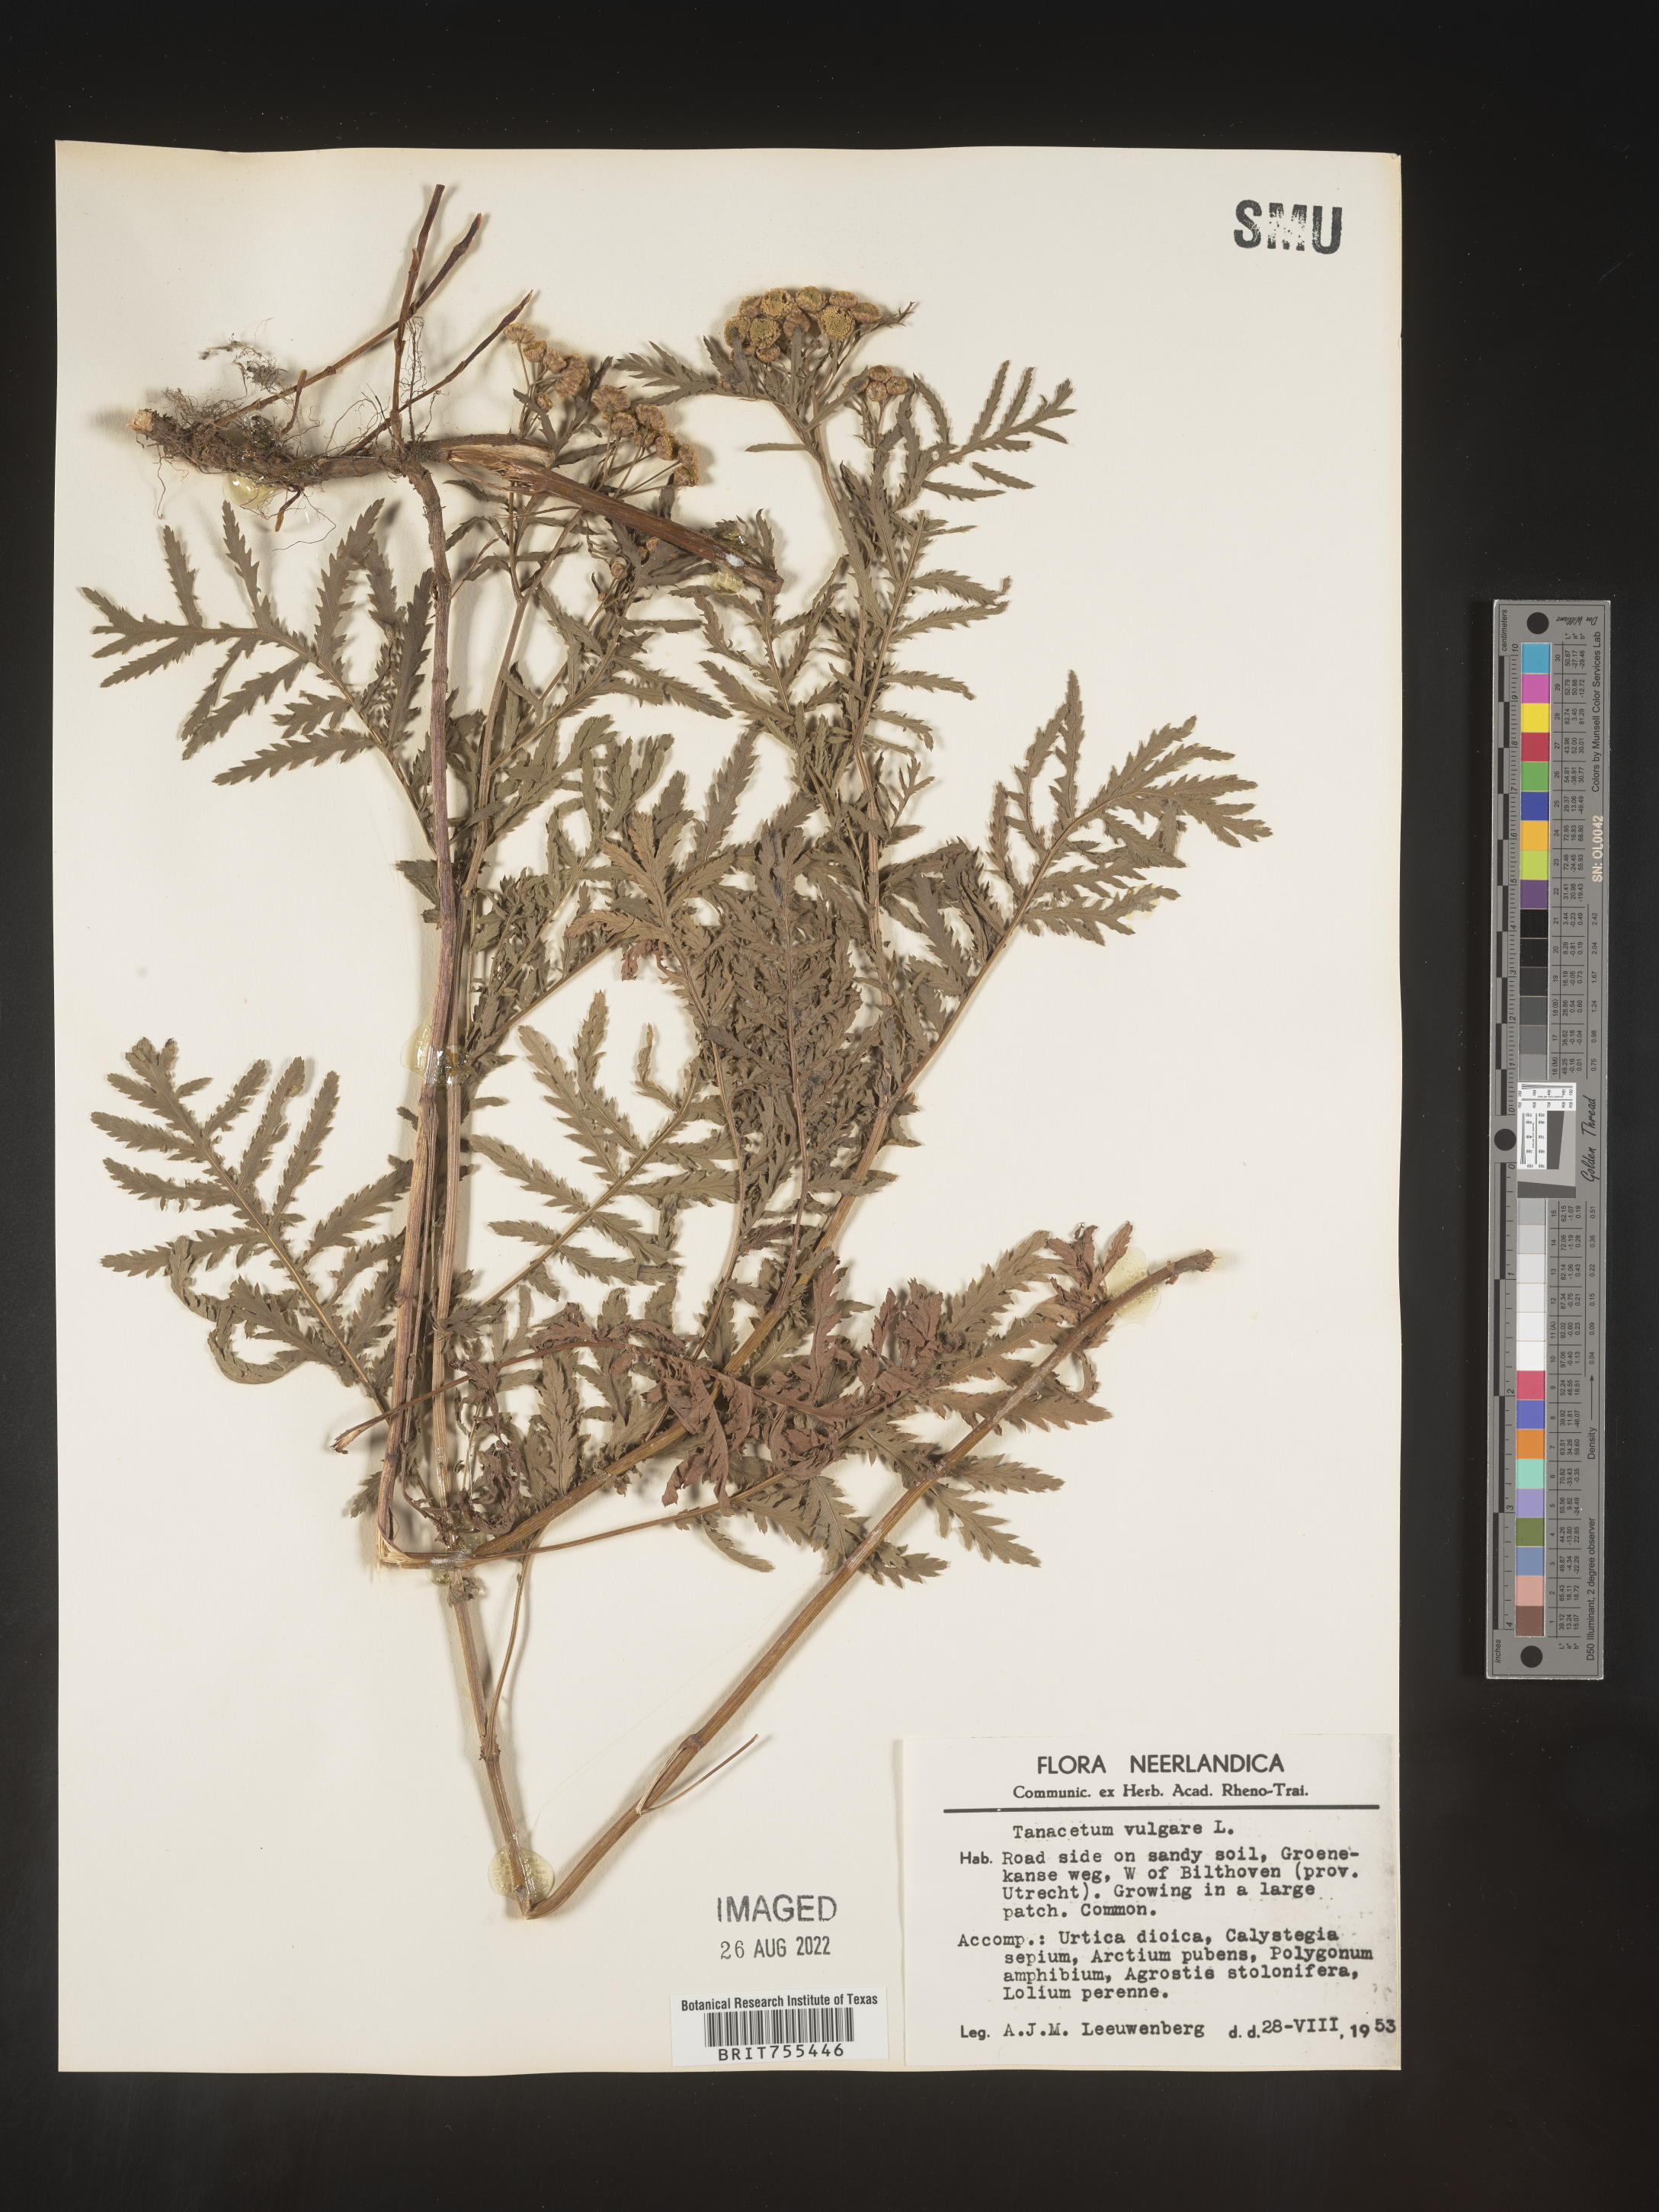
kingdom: Plantae
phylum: Tracheophyta
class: Magnoliopsida
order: Asterales
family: Asteraceae
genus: Tanacetum
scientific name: Tanacetum
